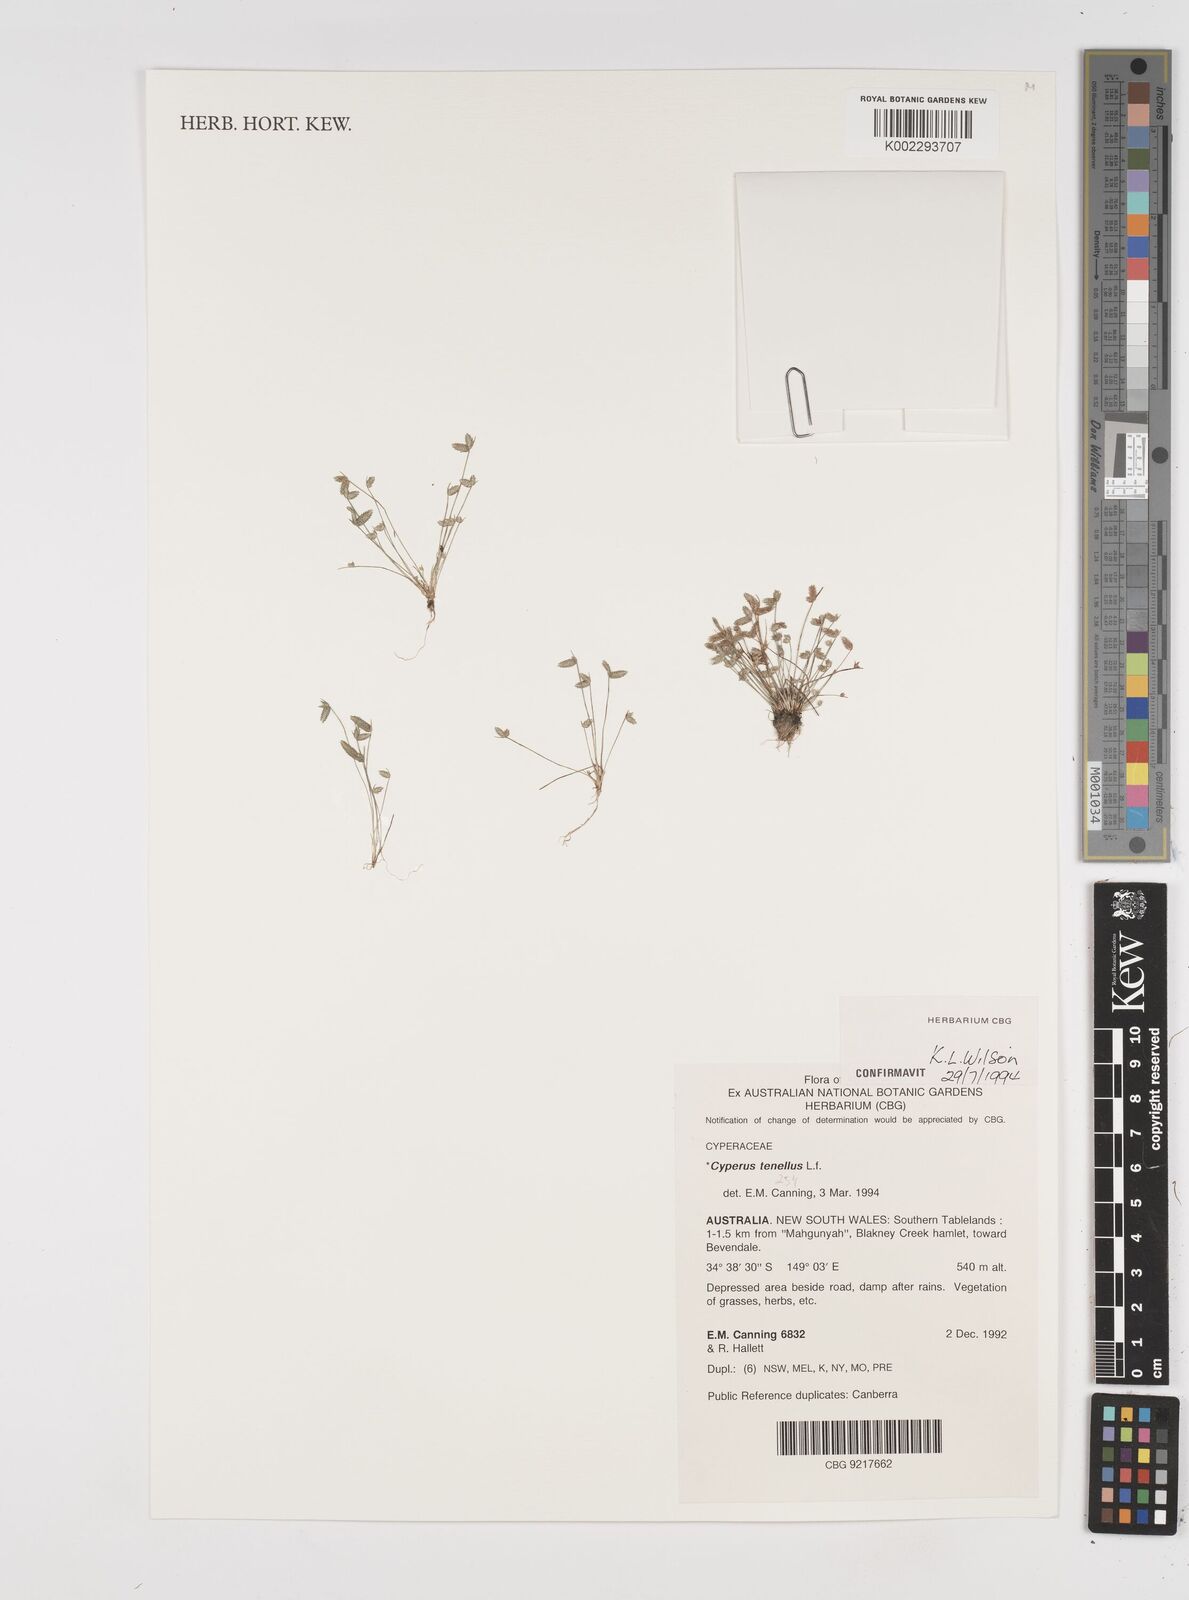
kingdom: Plantae
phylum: Tracheophyta
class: Liliopsida
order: Poales
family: Cyperaceae
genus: Isolepis
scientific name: Isolepis levynsiana
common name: Sedge
